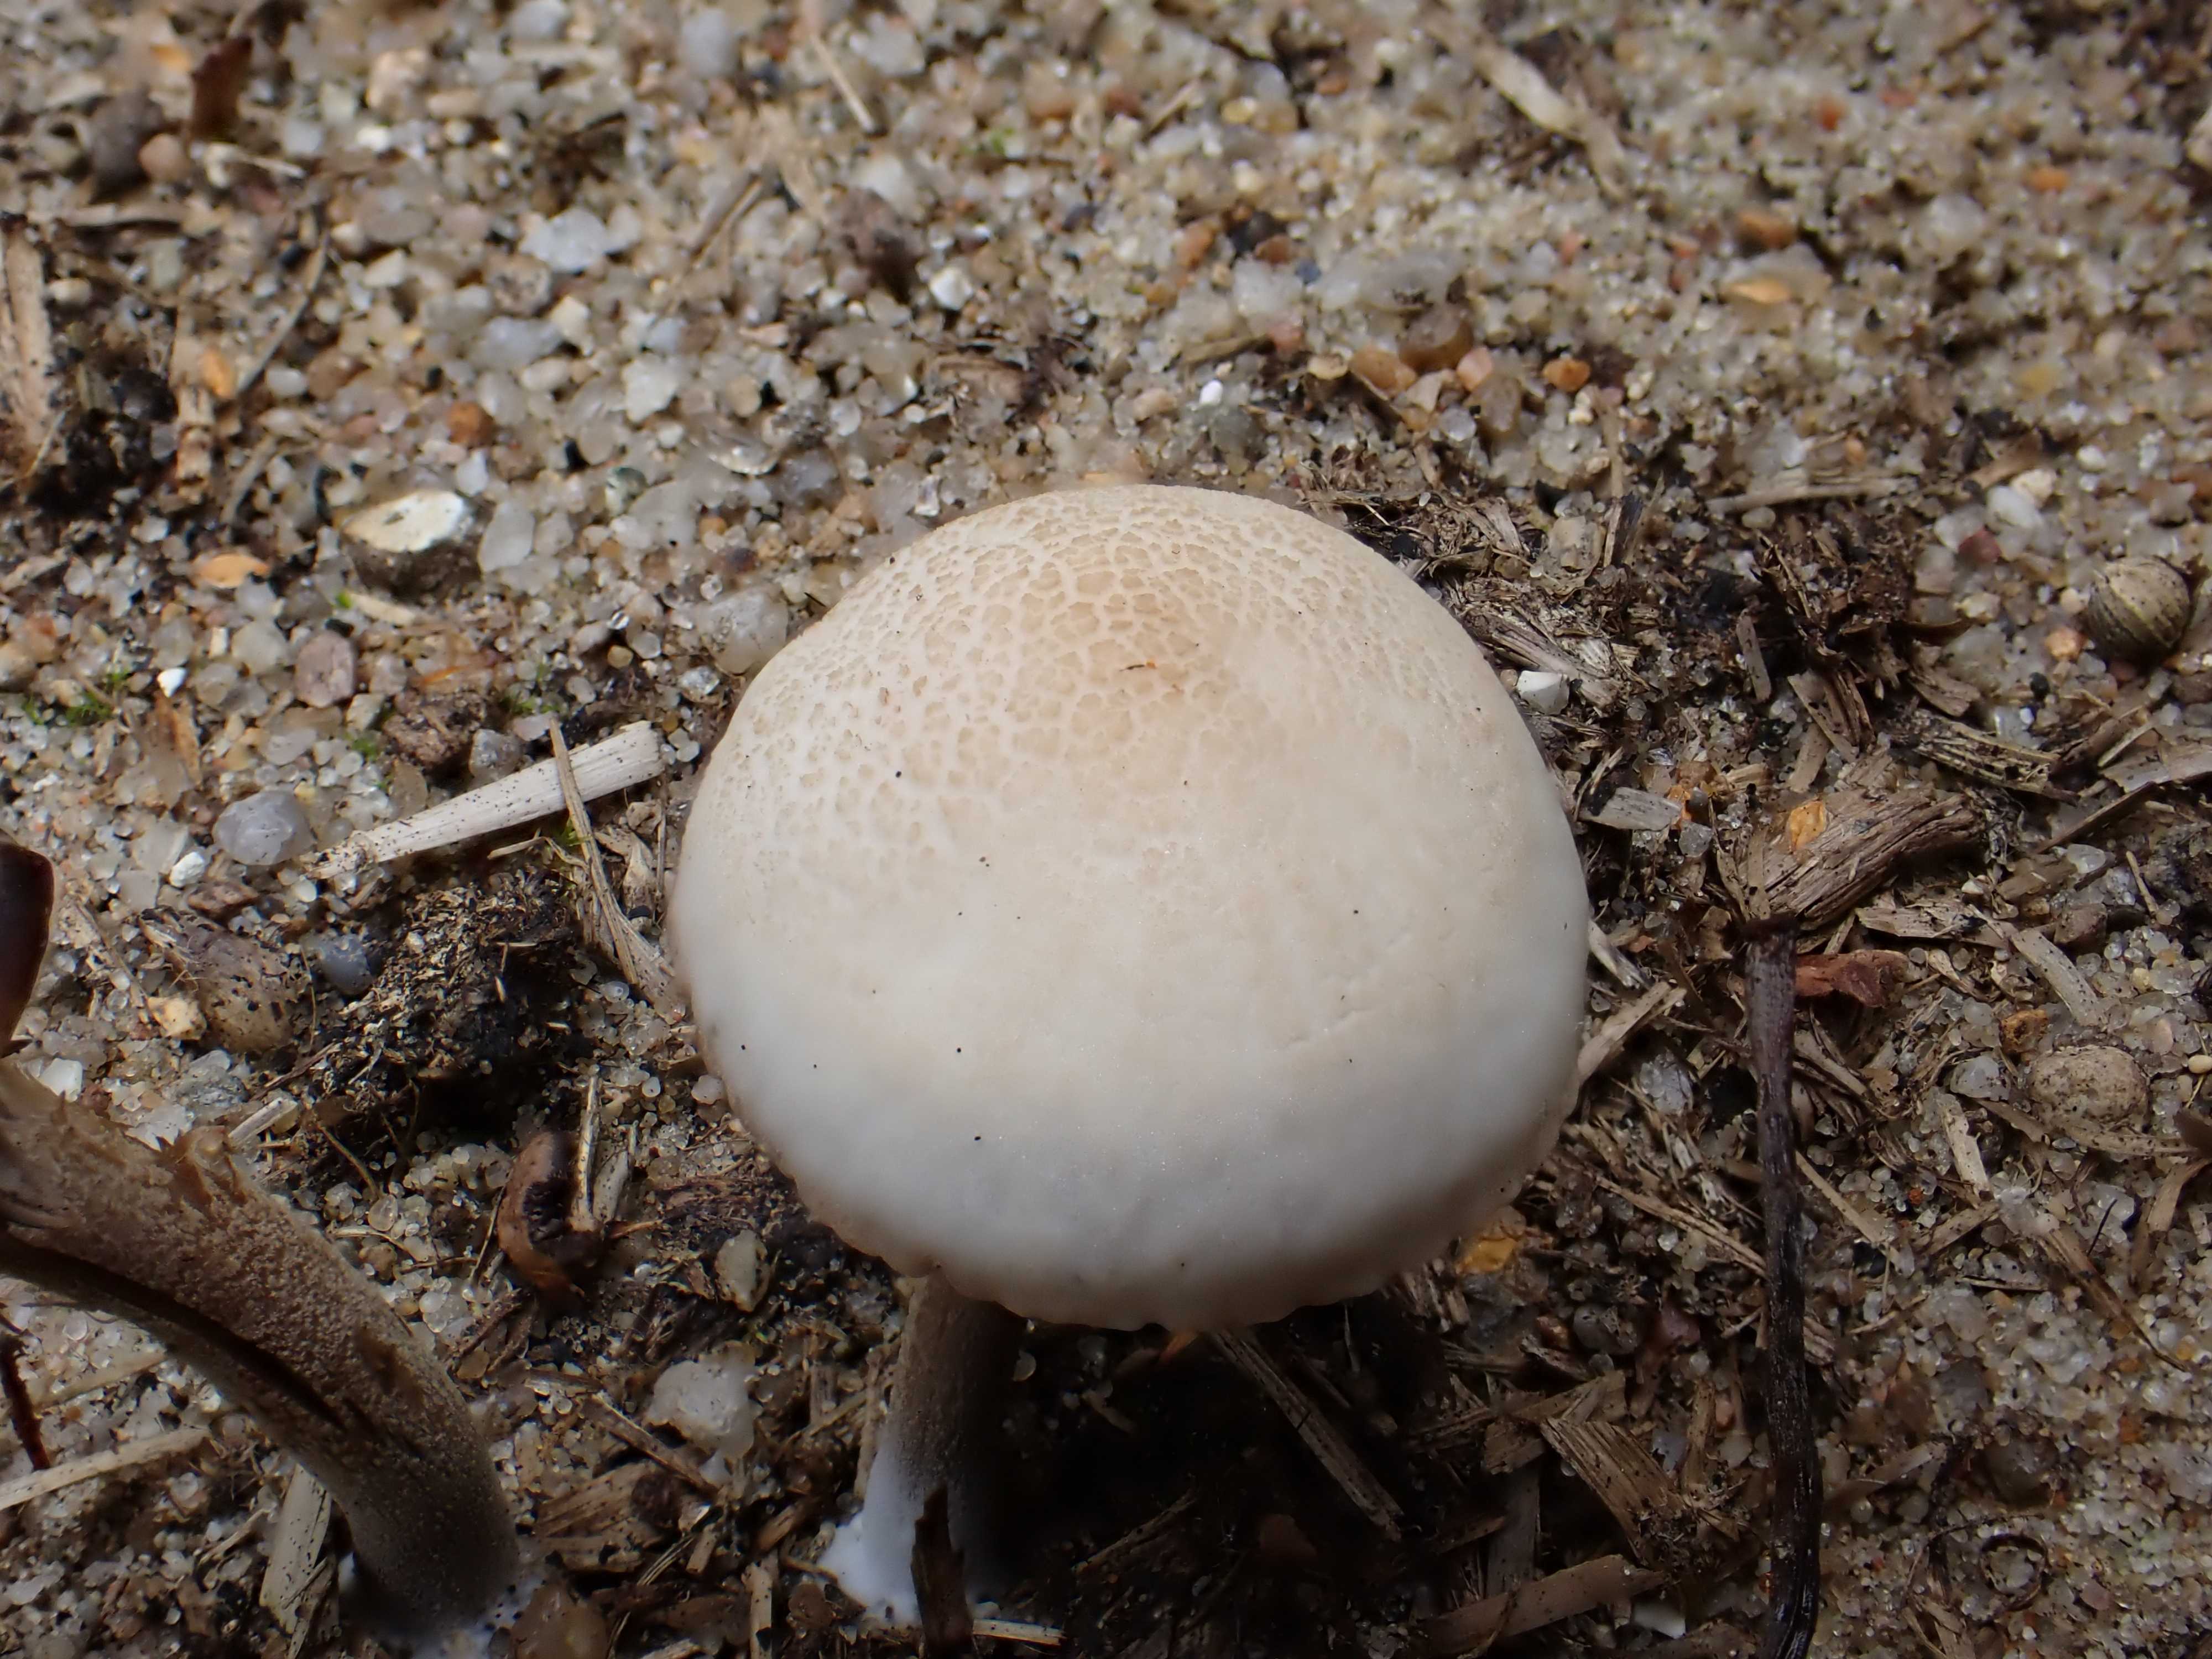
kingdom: Fungi
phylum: Basidiomycota
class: Agaricomycetes
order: Agaricales
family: Bolbitiaceae
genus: Panaeolus
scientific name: Panaeolus
